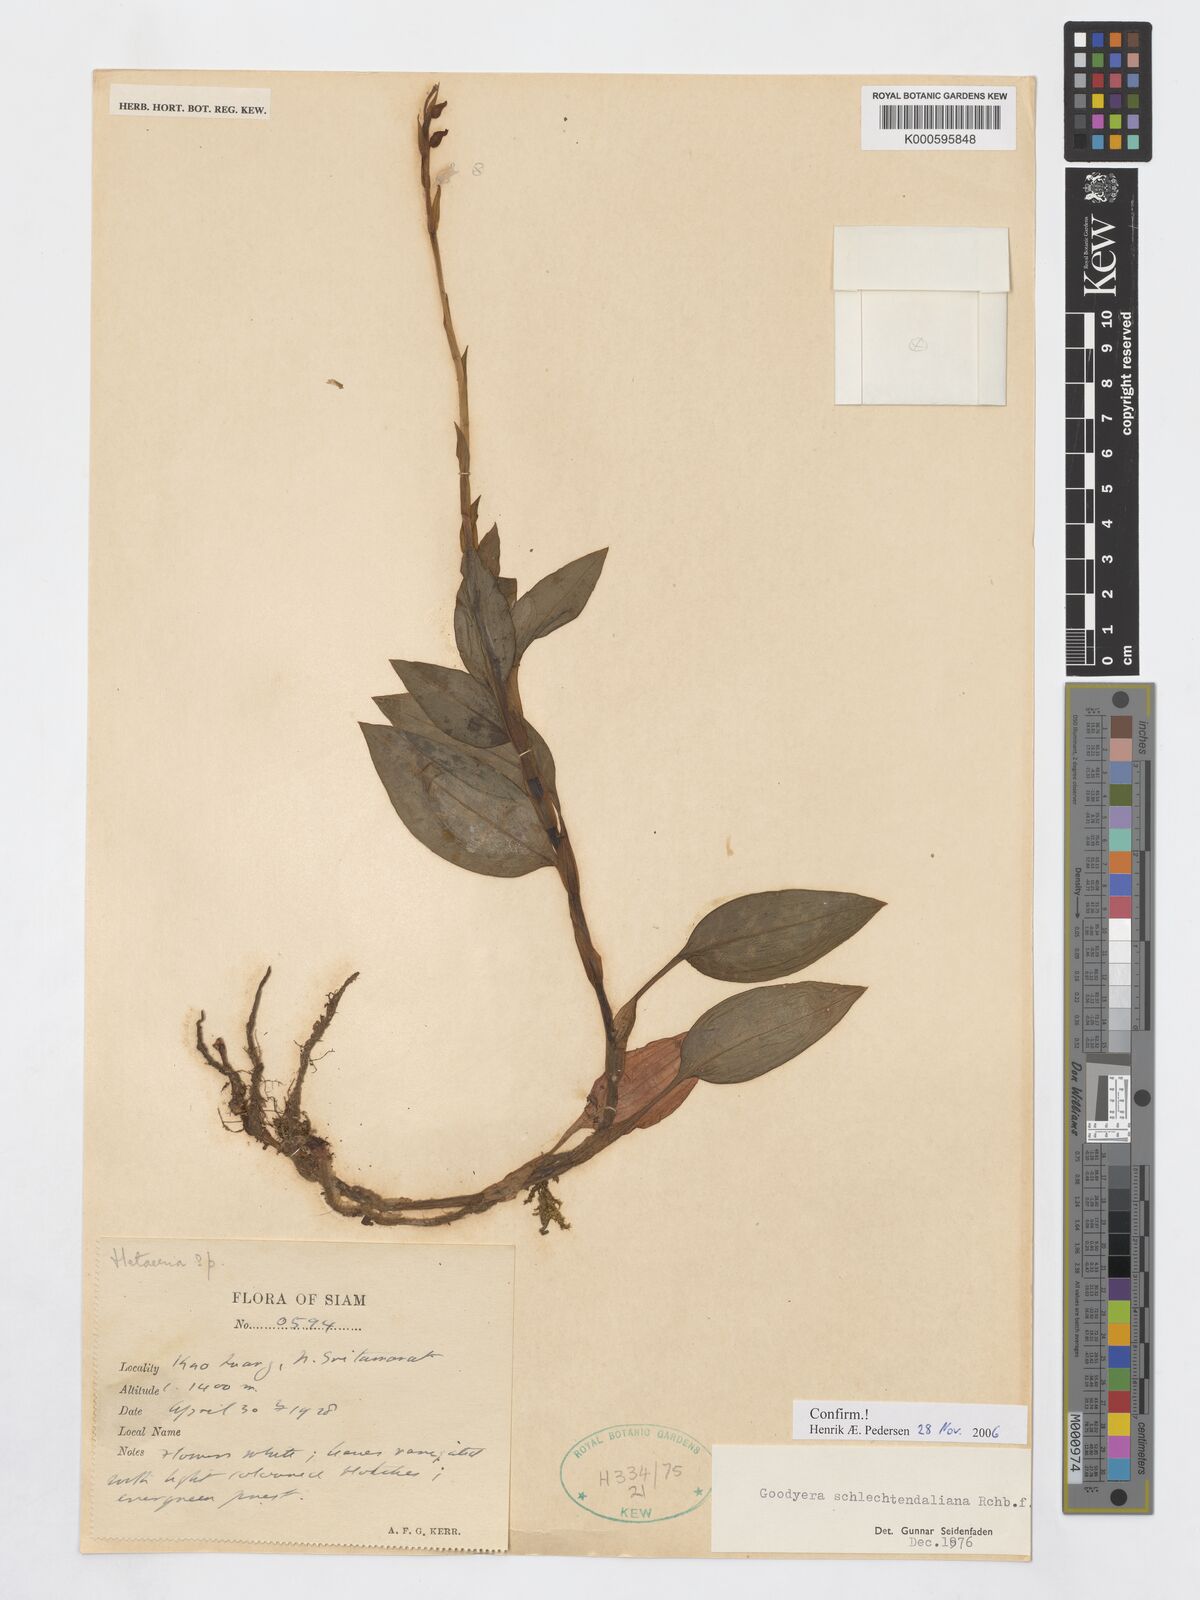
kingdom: Plantae
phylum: Tracheophyta
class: Liliopsida
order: Asparagales
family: Orchidaceae
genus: Goodyera
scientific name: Goodyera schlechtendaliana
